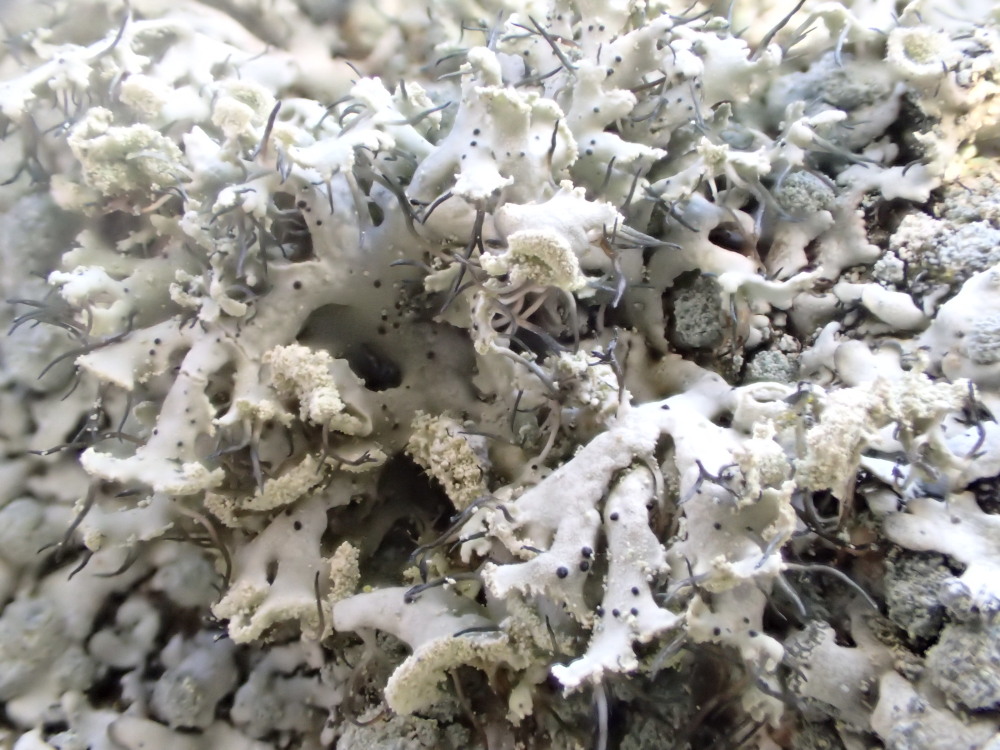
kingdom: Fungi
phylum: Ascomycota
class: Lecanoromycetes
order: Caliciales
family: Physciaceae
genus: Physcia
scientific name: Physcia tenella
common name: spæd rosetlav
